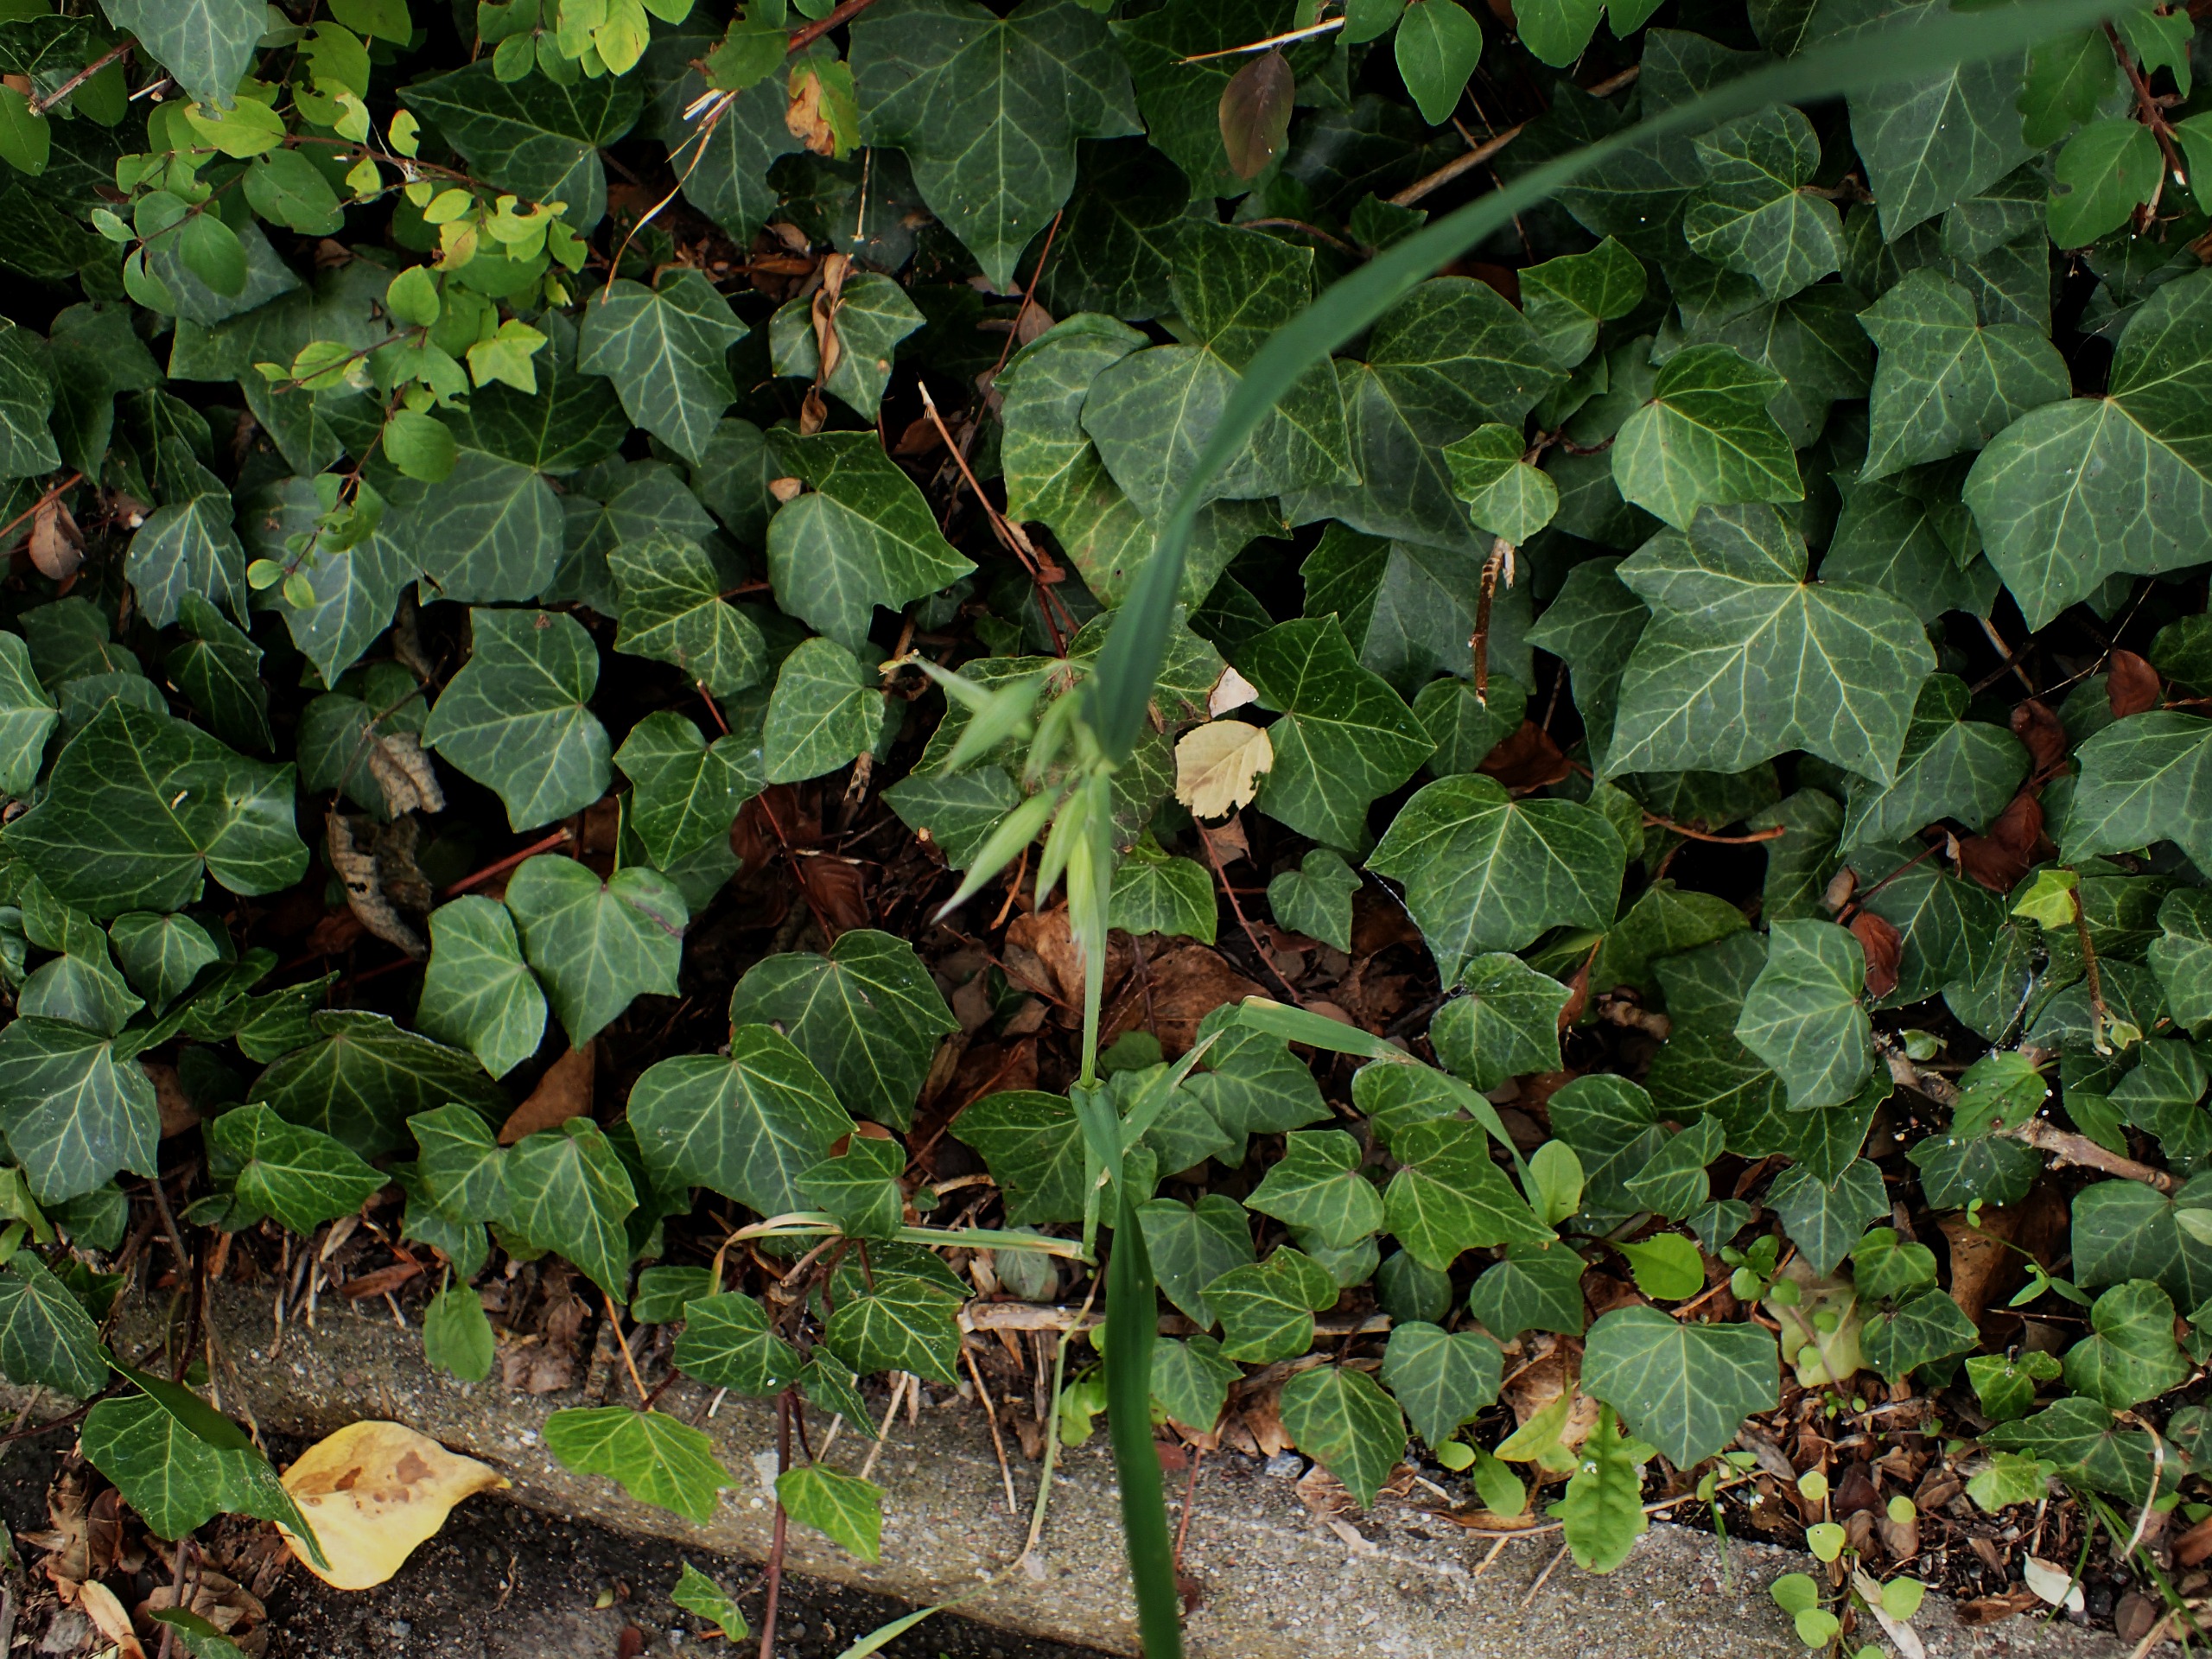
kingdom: Plantae
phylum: Tracheophyta
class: Liliopsida
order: Poales
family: Poaceae
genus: Avena
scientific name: Avena sativa
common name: Almindelig havre
